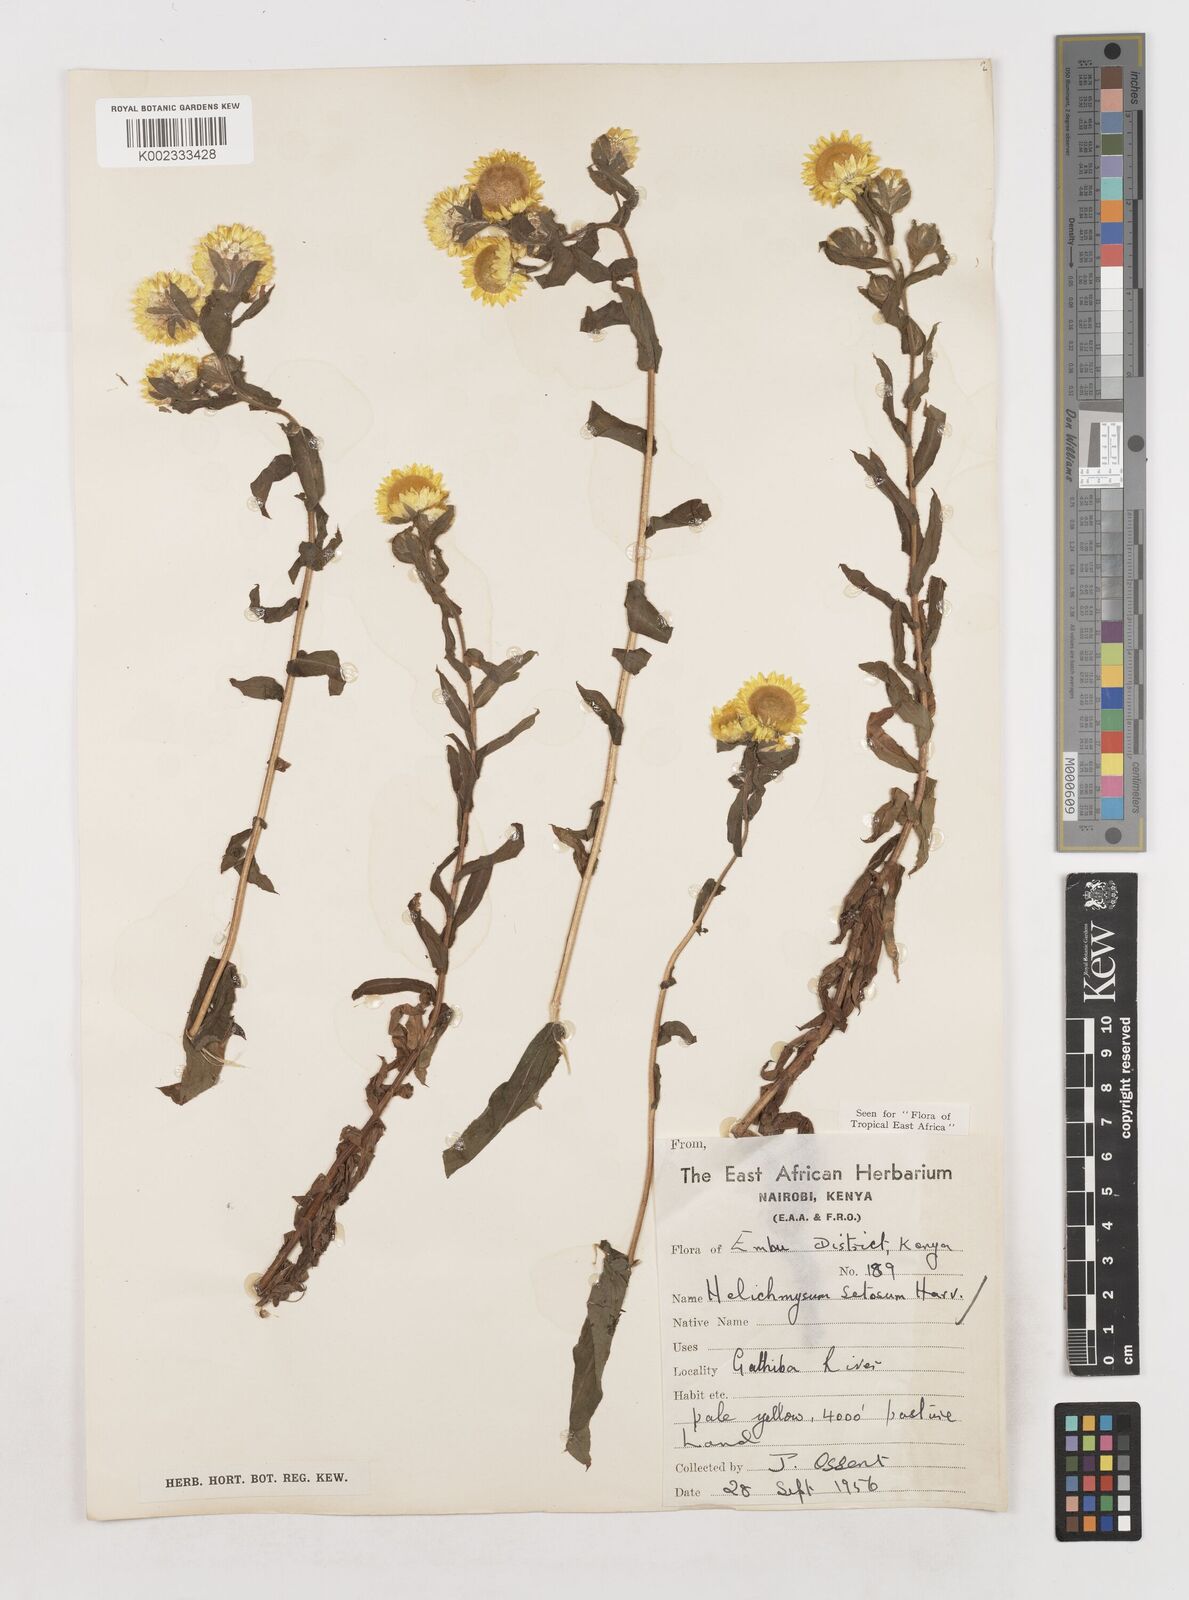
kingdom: Plantae
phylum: Tracheophyta
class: Magnoliopsida
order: Asterales
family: Asteraceae
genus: Helichrysum
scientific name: Helichrysum setosum
